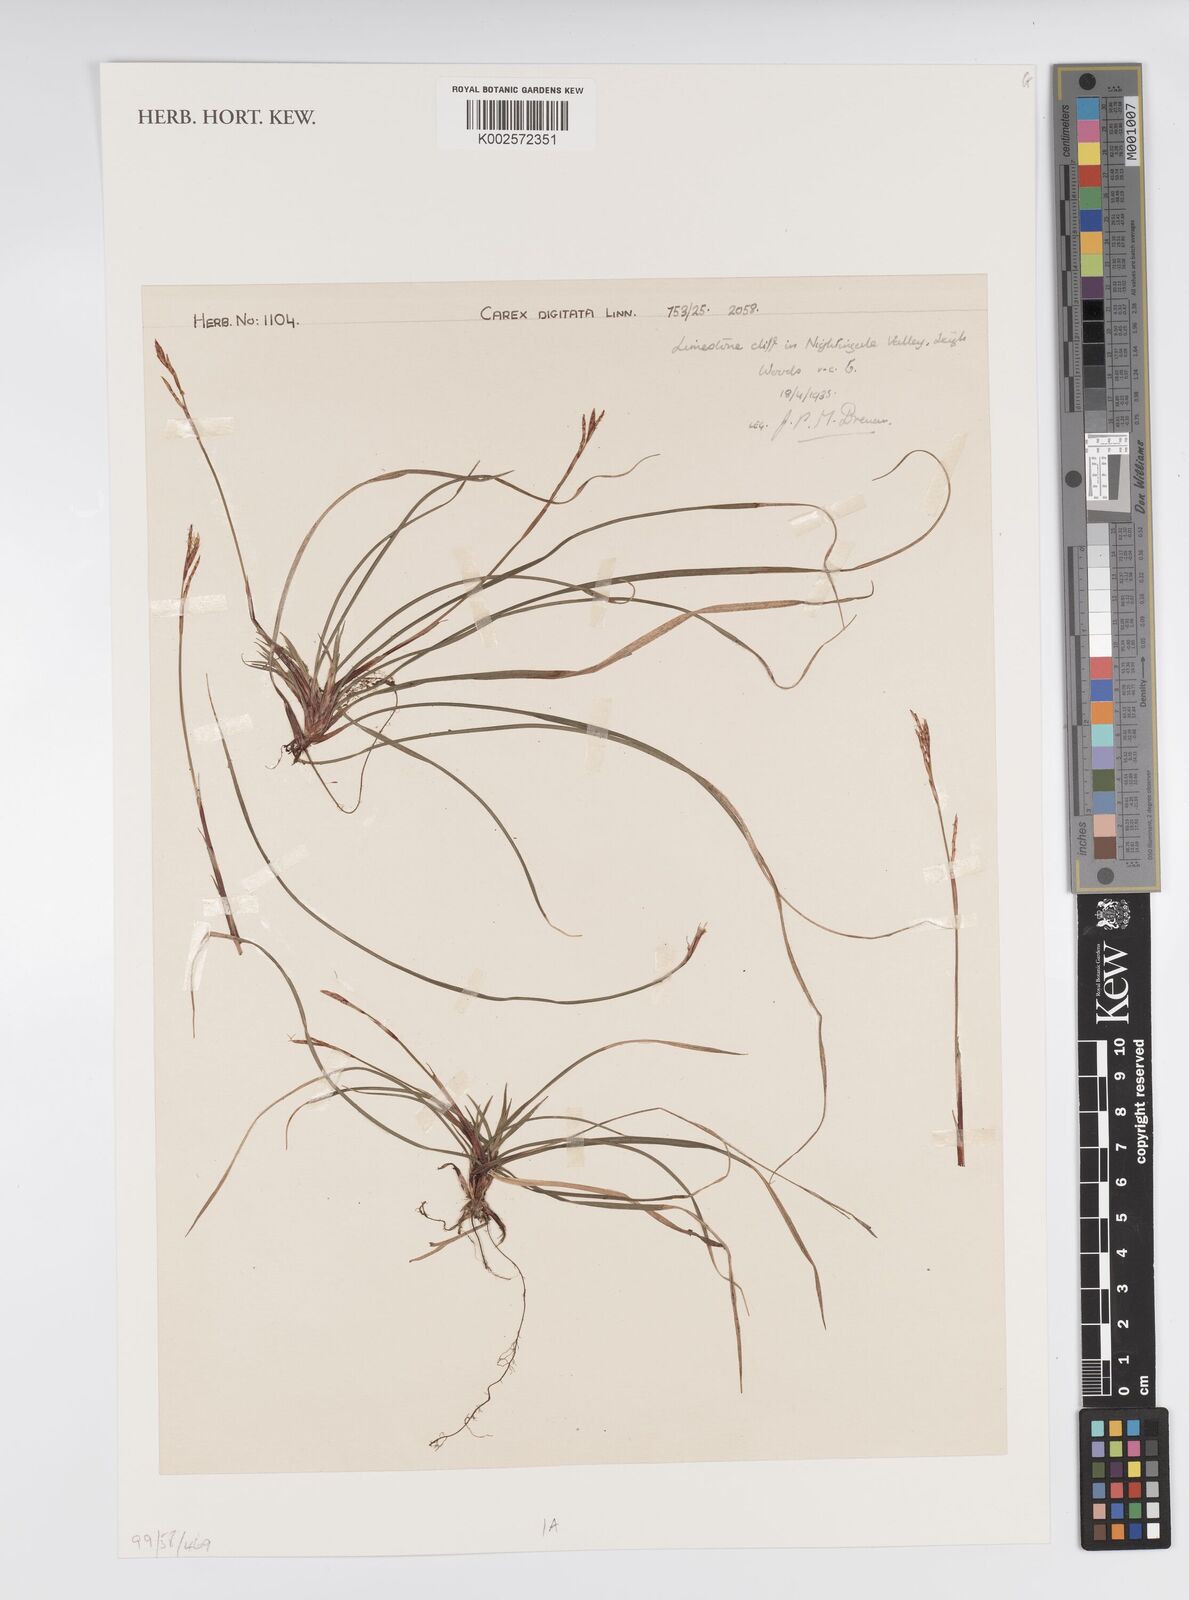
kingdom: Plantae
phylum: Tracheophyta
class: Liliopsida
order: Poales
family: Cyperaceae
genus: Carex
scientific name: Carex digitata
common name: Fingered sedge
